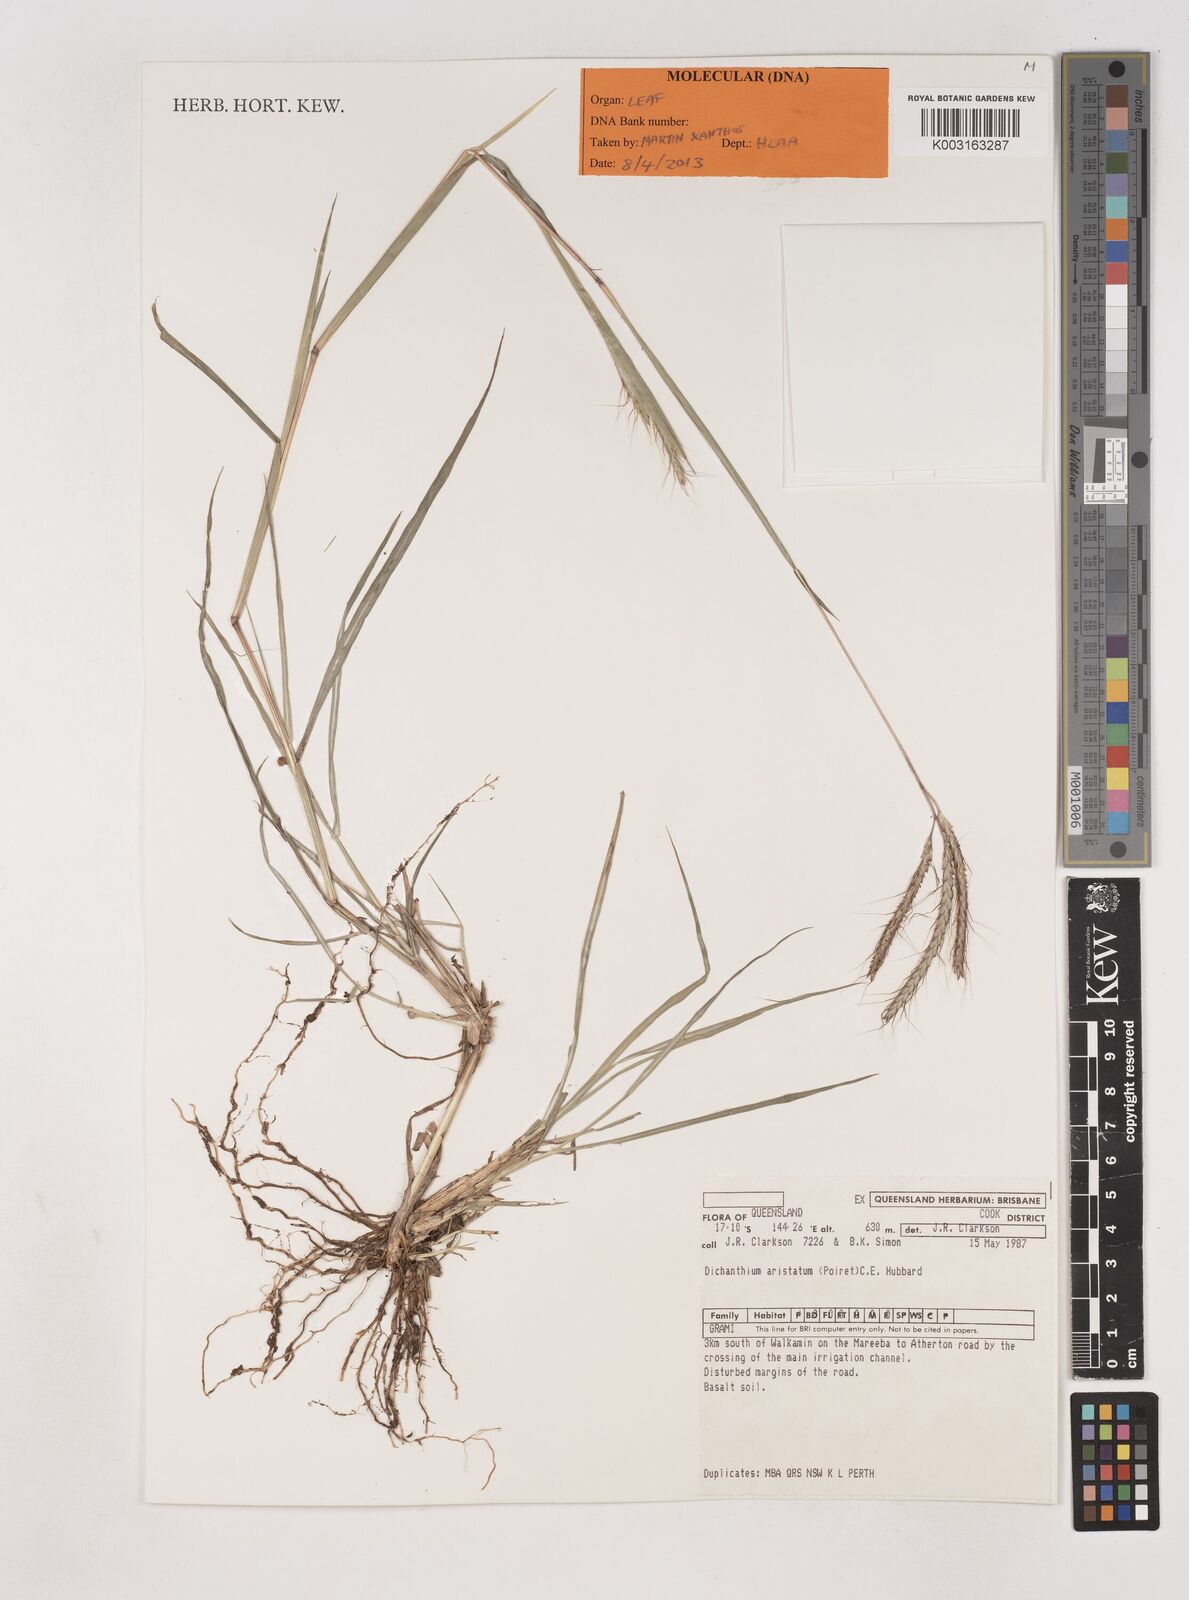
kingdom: Plantae
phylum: Tracheophyta
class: Liliopsida
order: Poales
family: Poaceae
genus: Dichanthium
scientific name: Dichanthium aristatum
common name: Angleton bluestem
